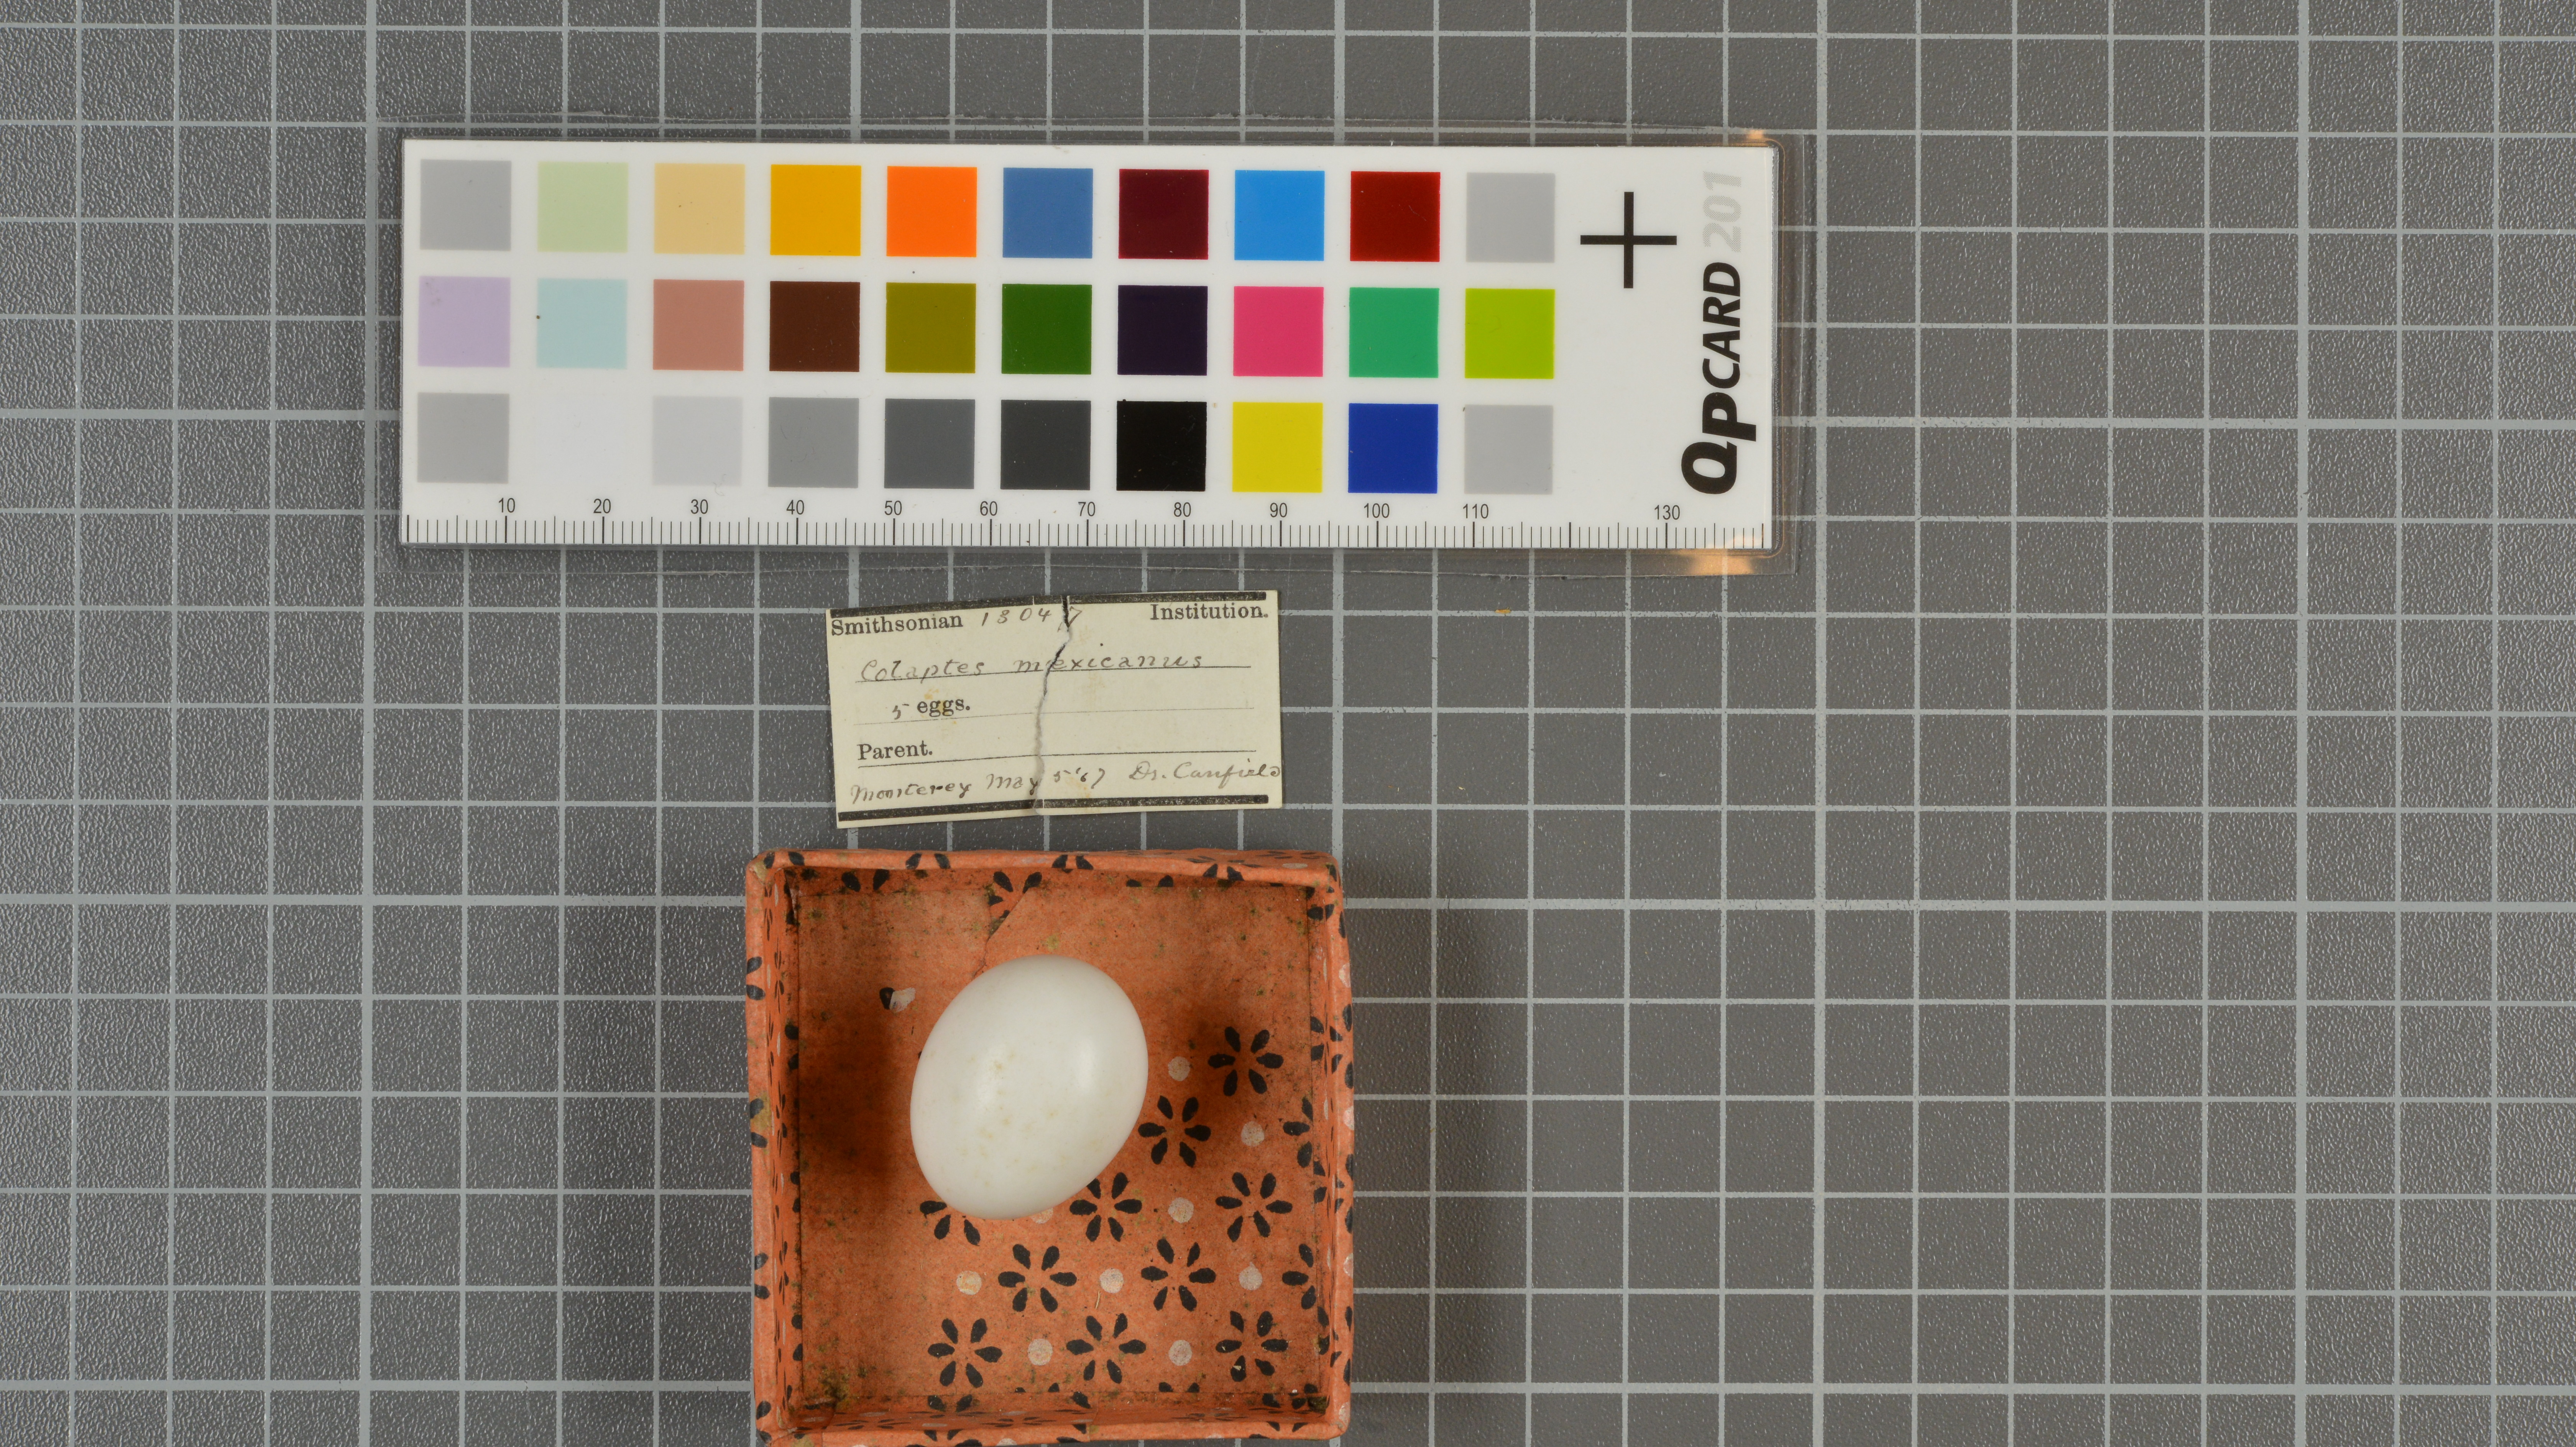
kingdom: Animalia
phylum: Chordata
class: Aves
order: Piciformes
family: Picidae
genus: Colaptes
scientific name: Colaptes auratus
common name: Northern flicker
